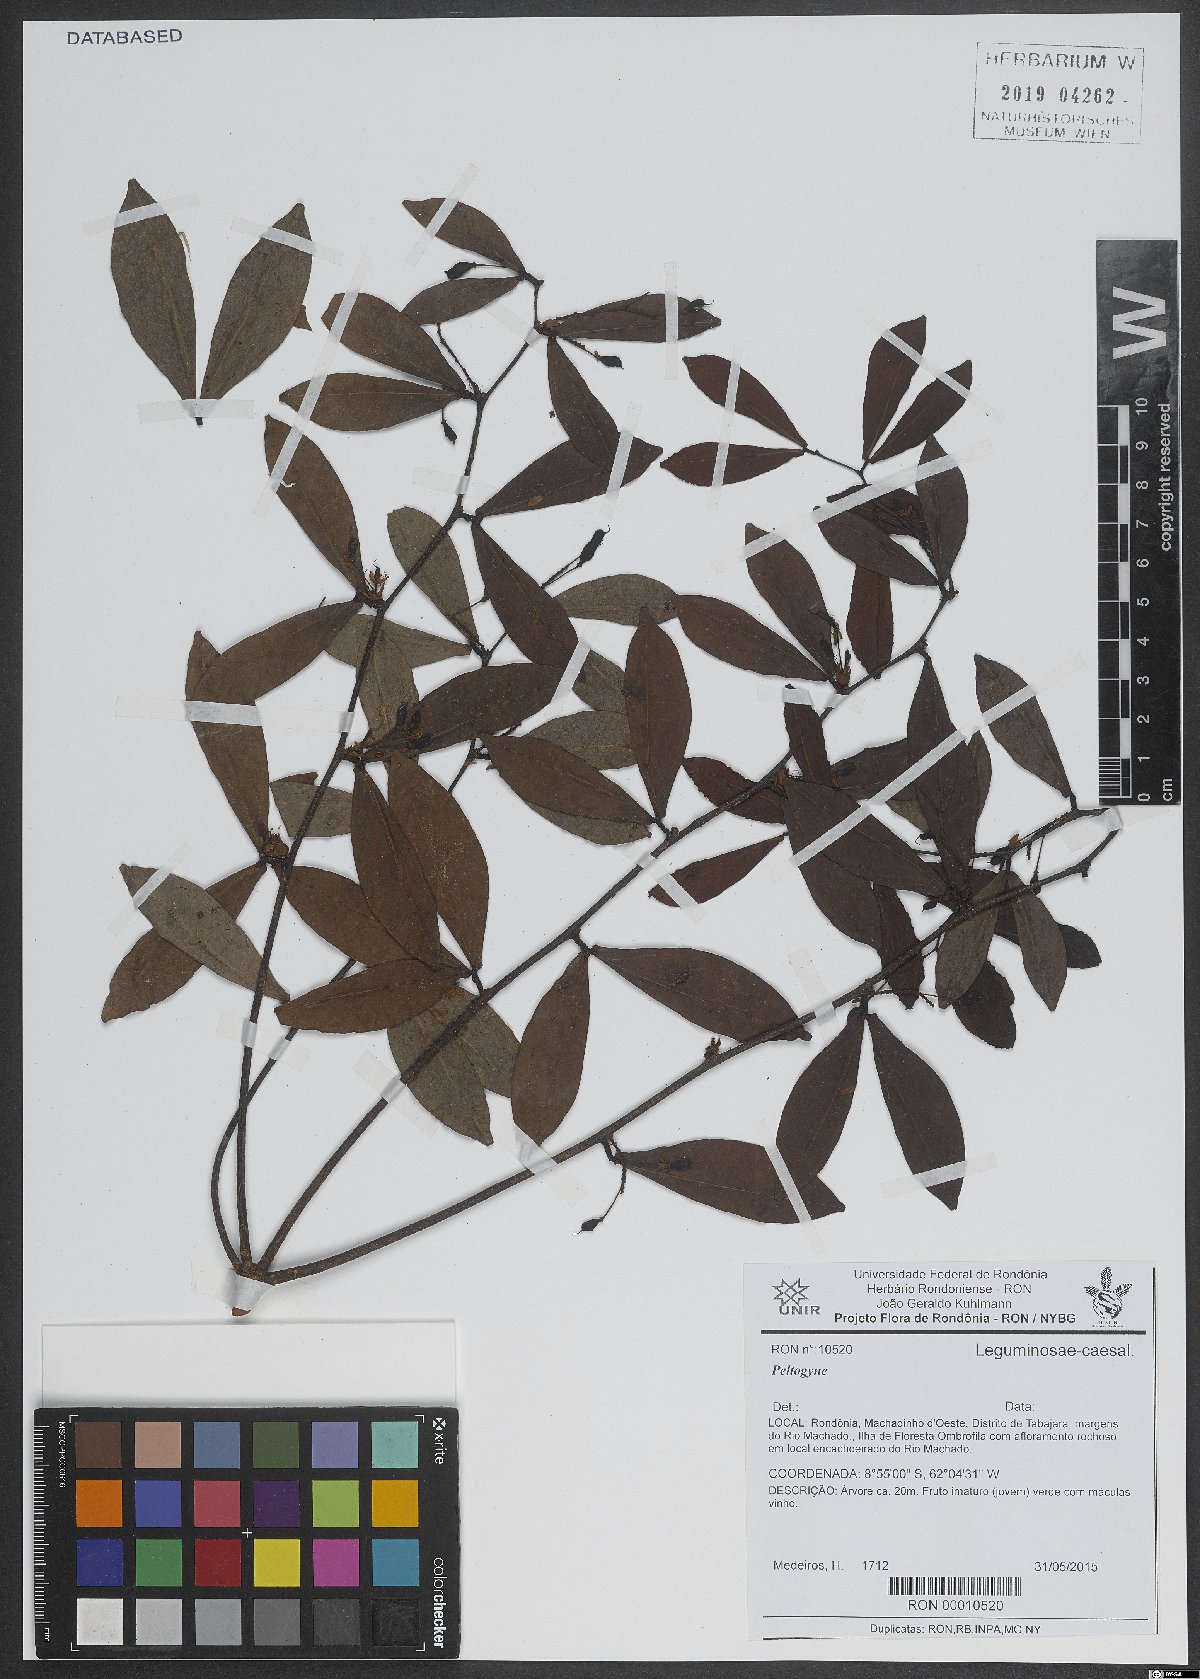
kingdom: Plantae
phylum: Tracheophyta
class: Magnoliopsida
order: Fabales
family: Fabaceae
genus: Peltogyne
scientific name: Peltogyne
